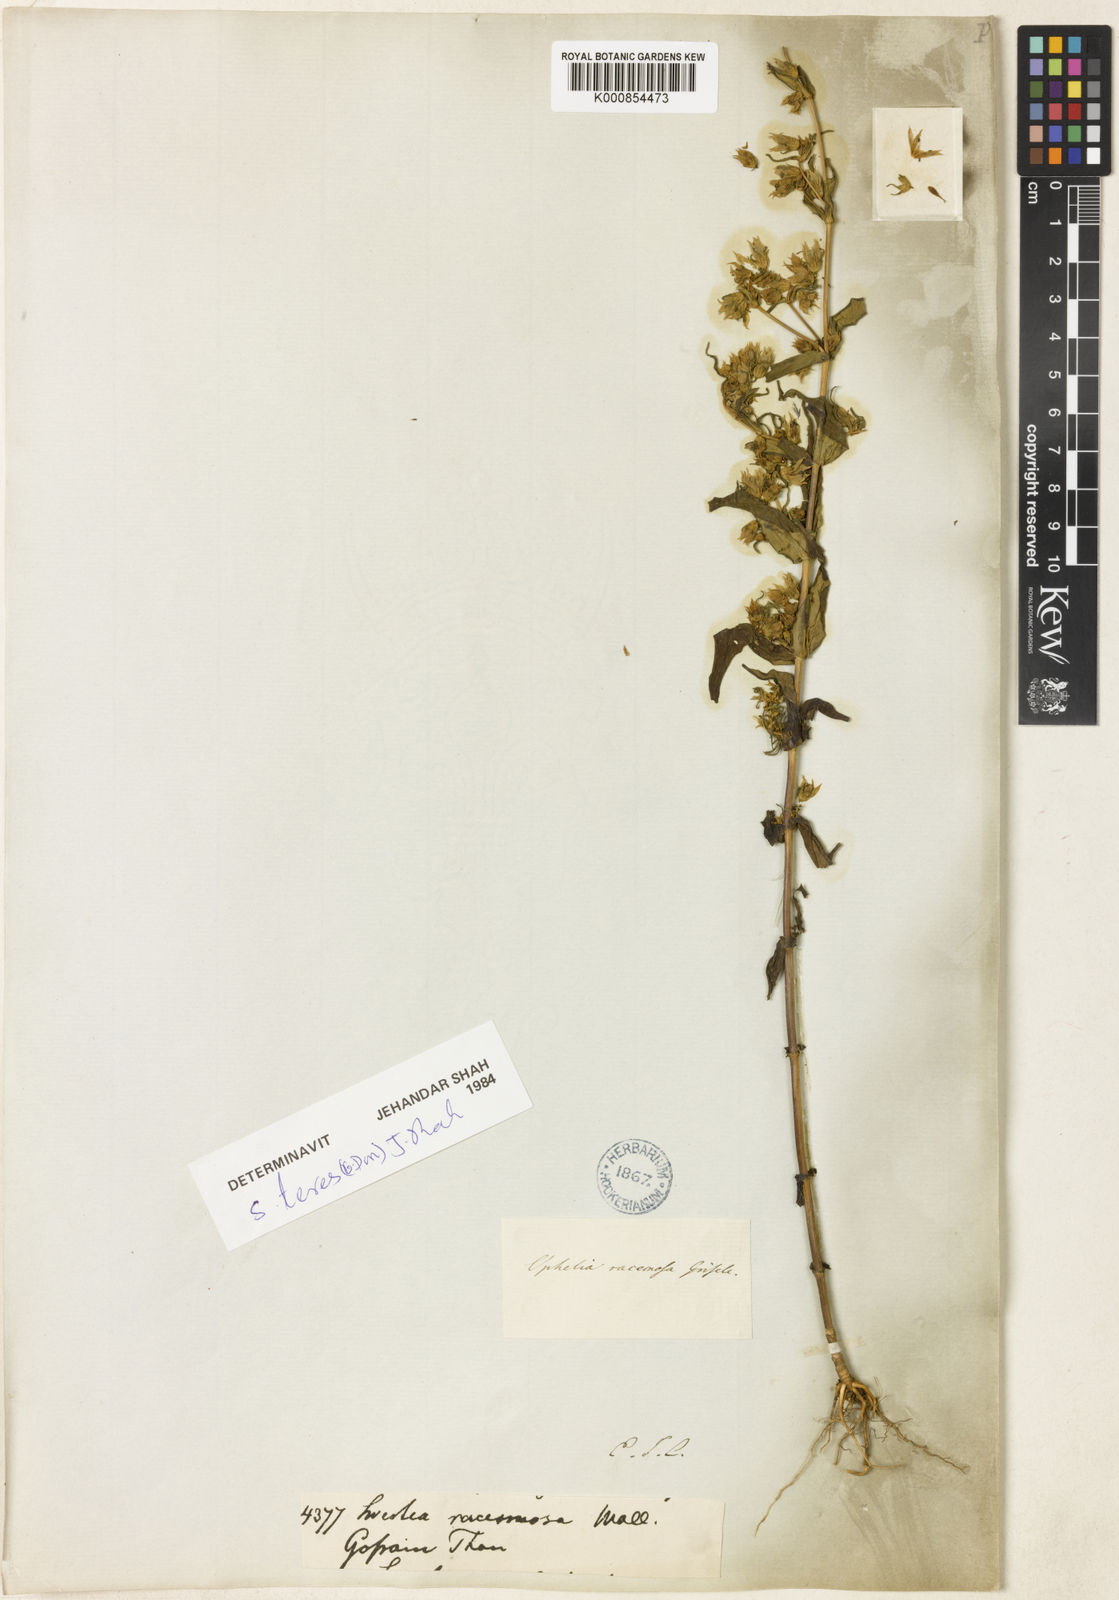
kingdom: Plantae
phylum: Tracheophyta
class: Magnoliopsida
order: Gentianales
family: Gentianaceae
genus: Swertia
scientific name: Swertia purpurascens
